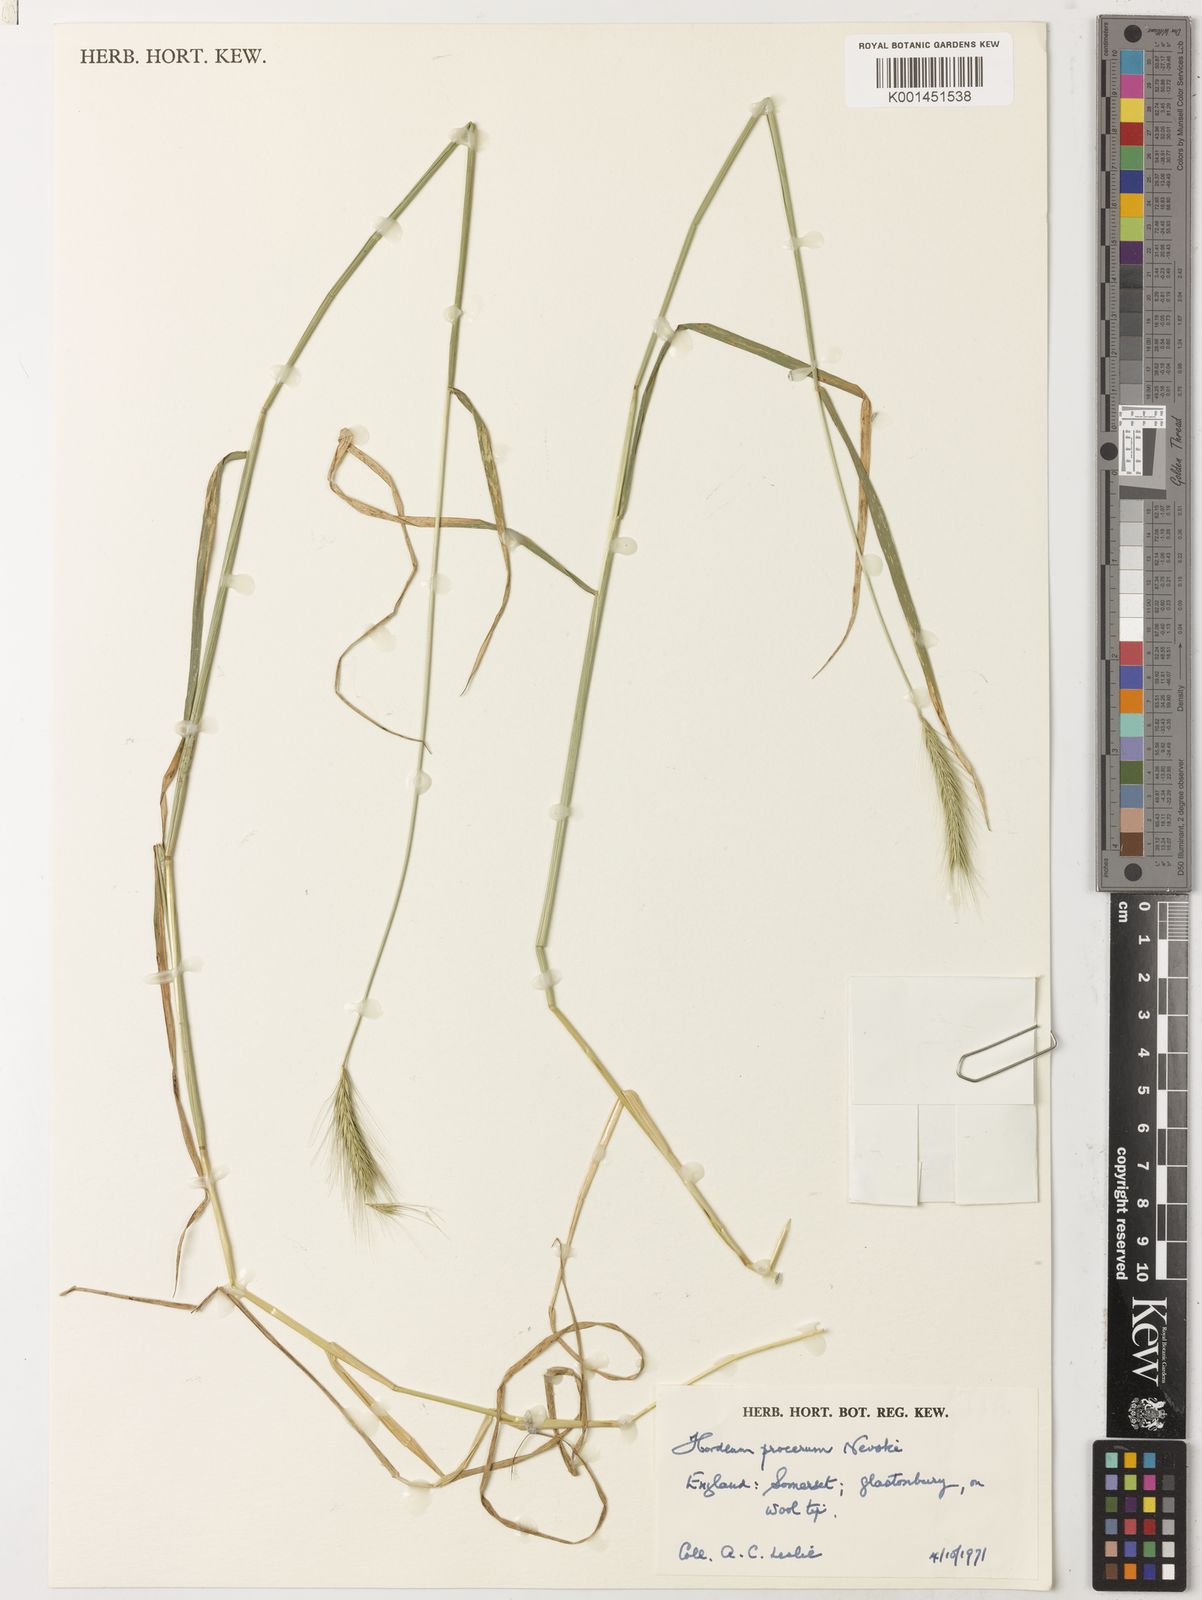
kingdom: Plantae
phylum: Tracheophyta
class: Liliopsida
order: Poales
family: Poaceae
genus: Hordeum
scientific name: Hordeum procerum
